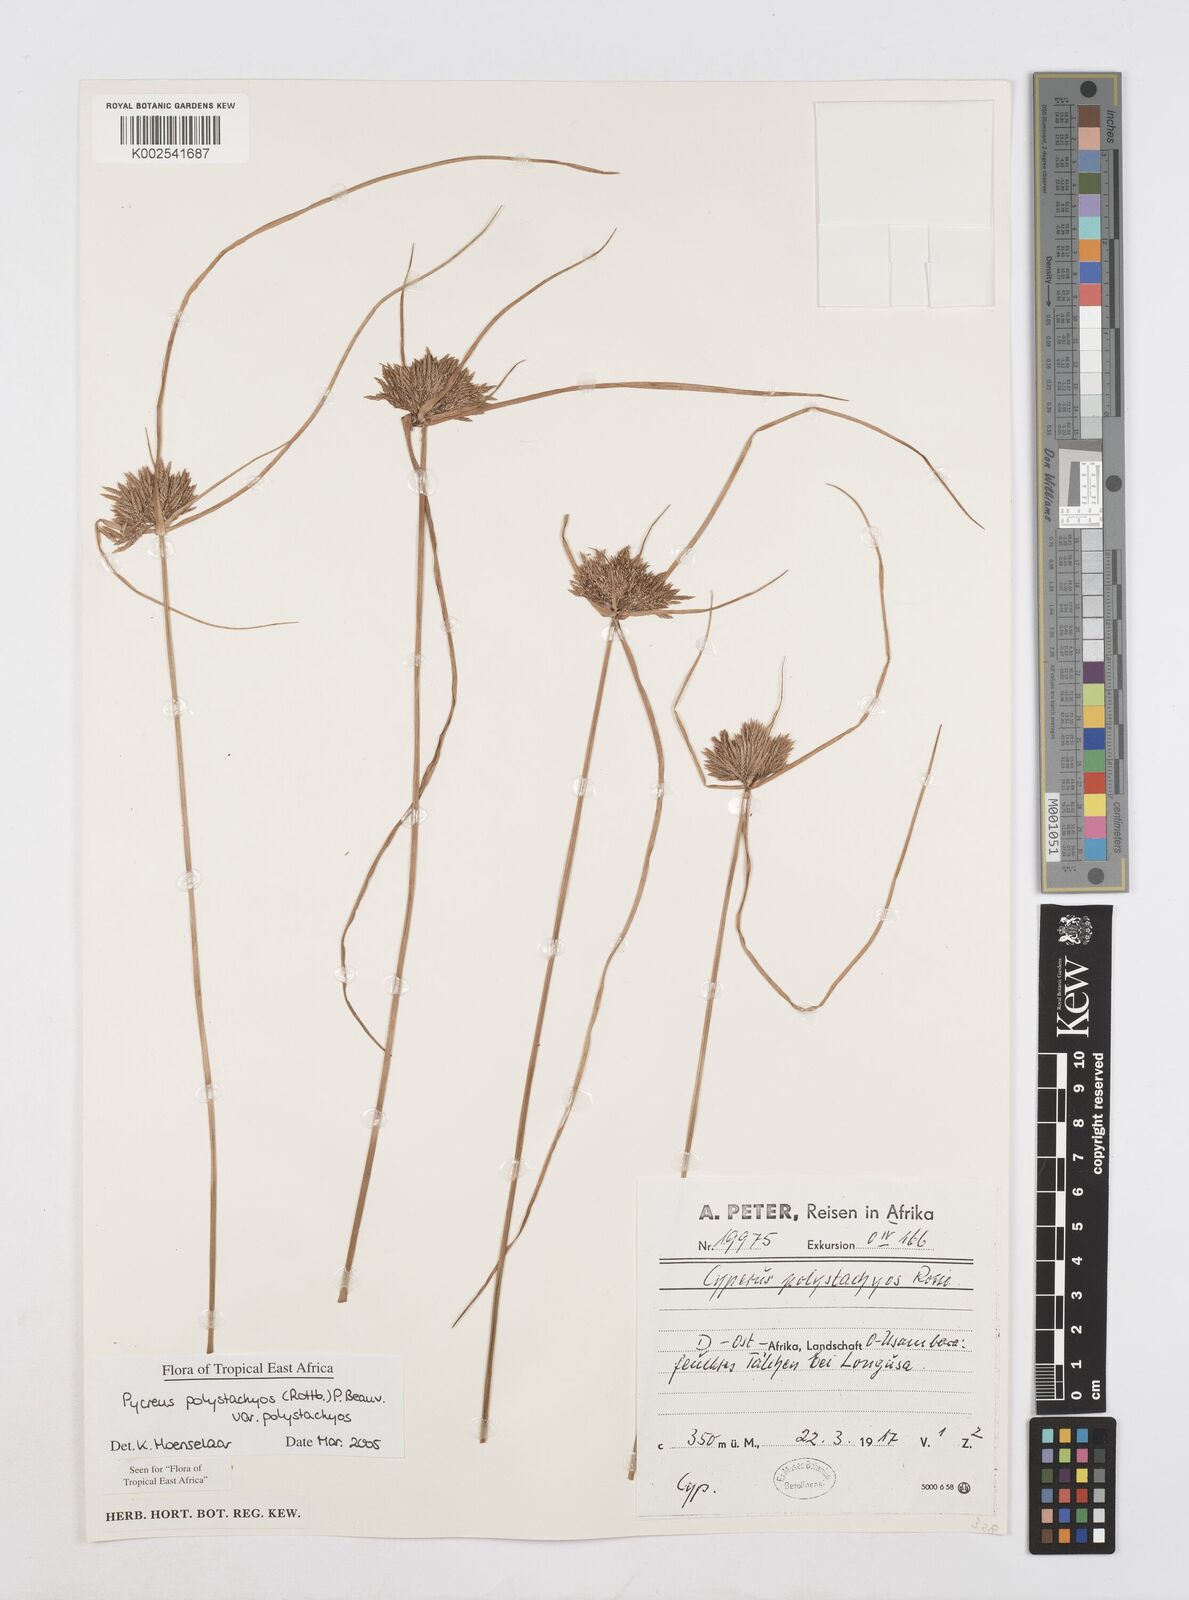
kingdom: Plantae
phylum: Tracheophyta
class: Liliopsida
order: Poales
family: Cyperaceae
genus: Cyperus
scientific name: Cyperus polystachyos
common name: Bunchy flat sedge
